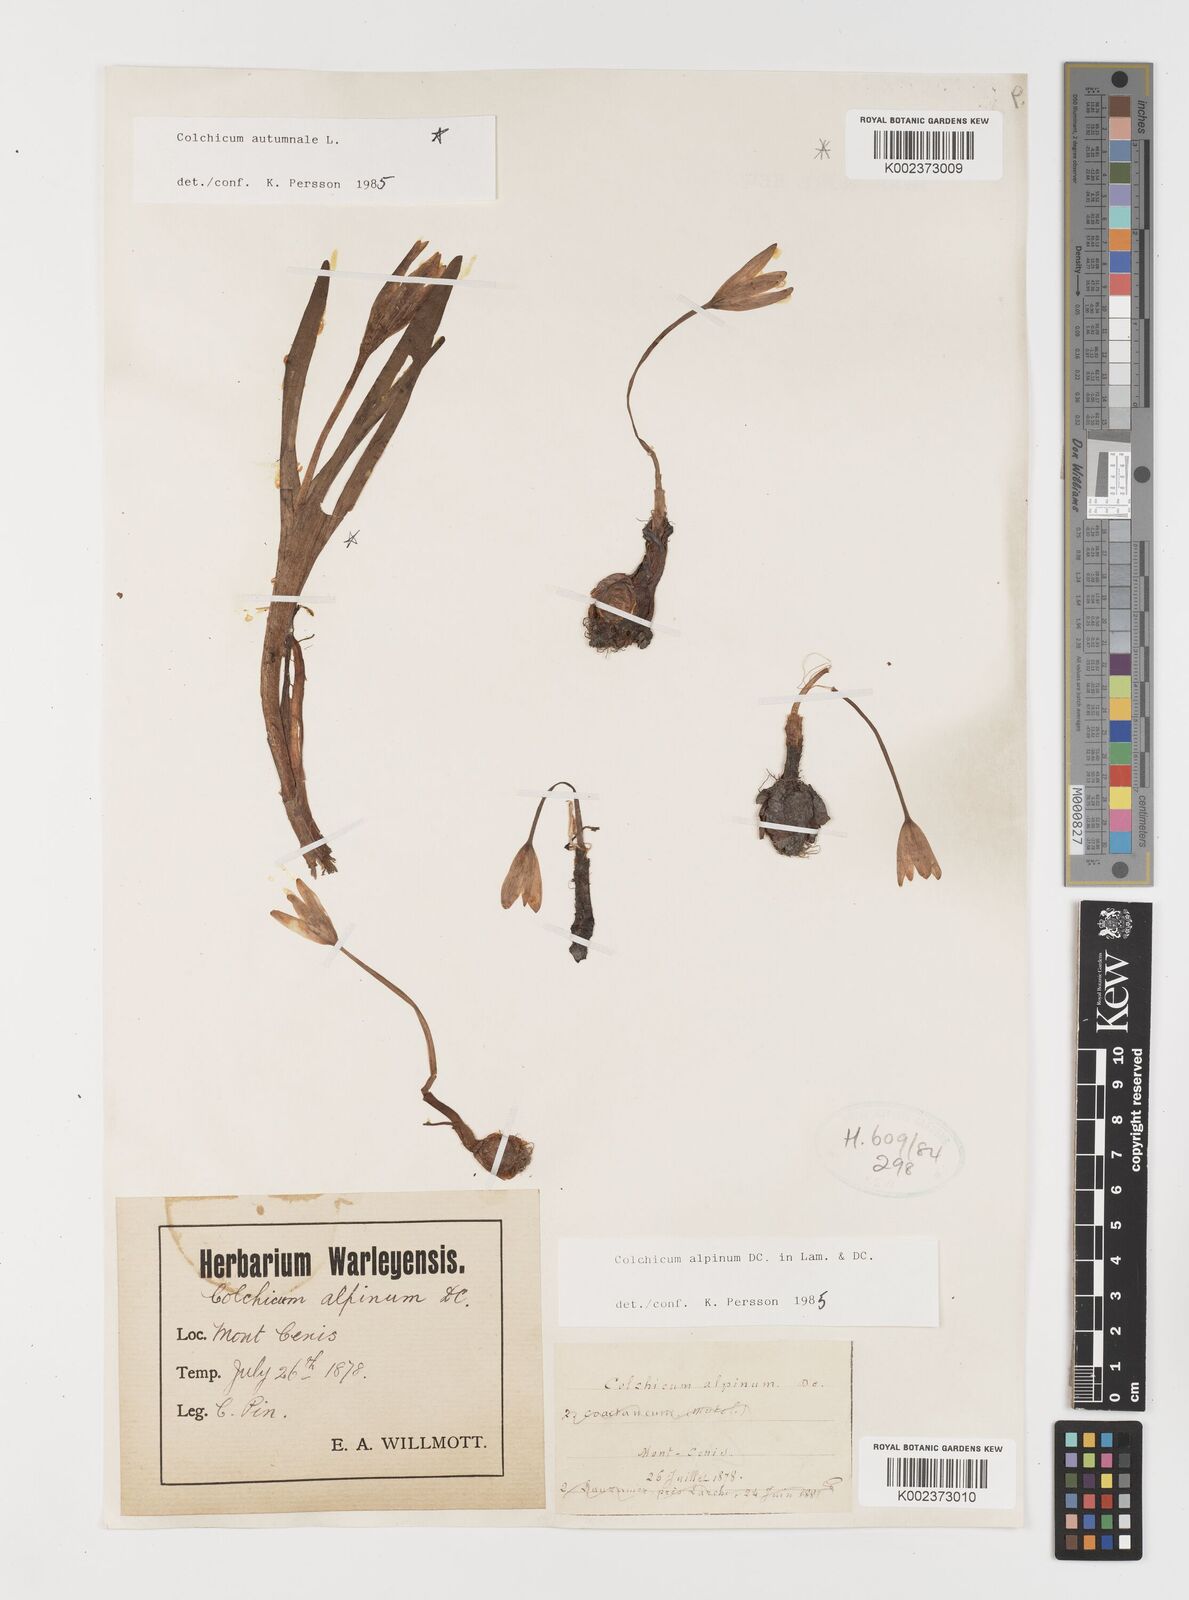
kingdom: Plantae
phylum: Tracheophyta
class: Liliopsida
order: Liliales
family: Colchicaceae
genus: Colchicum
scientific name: Colchicum alpinum
